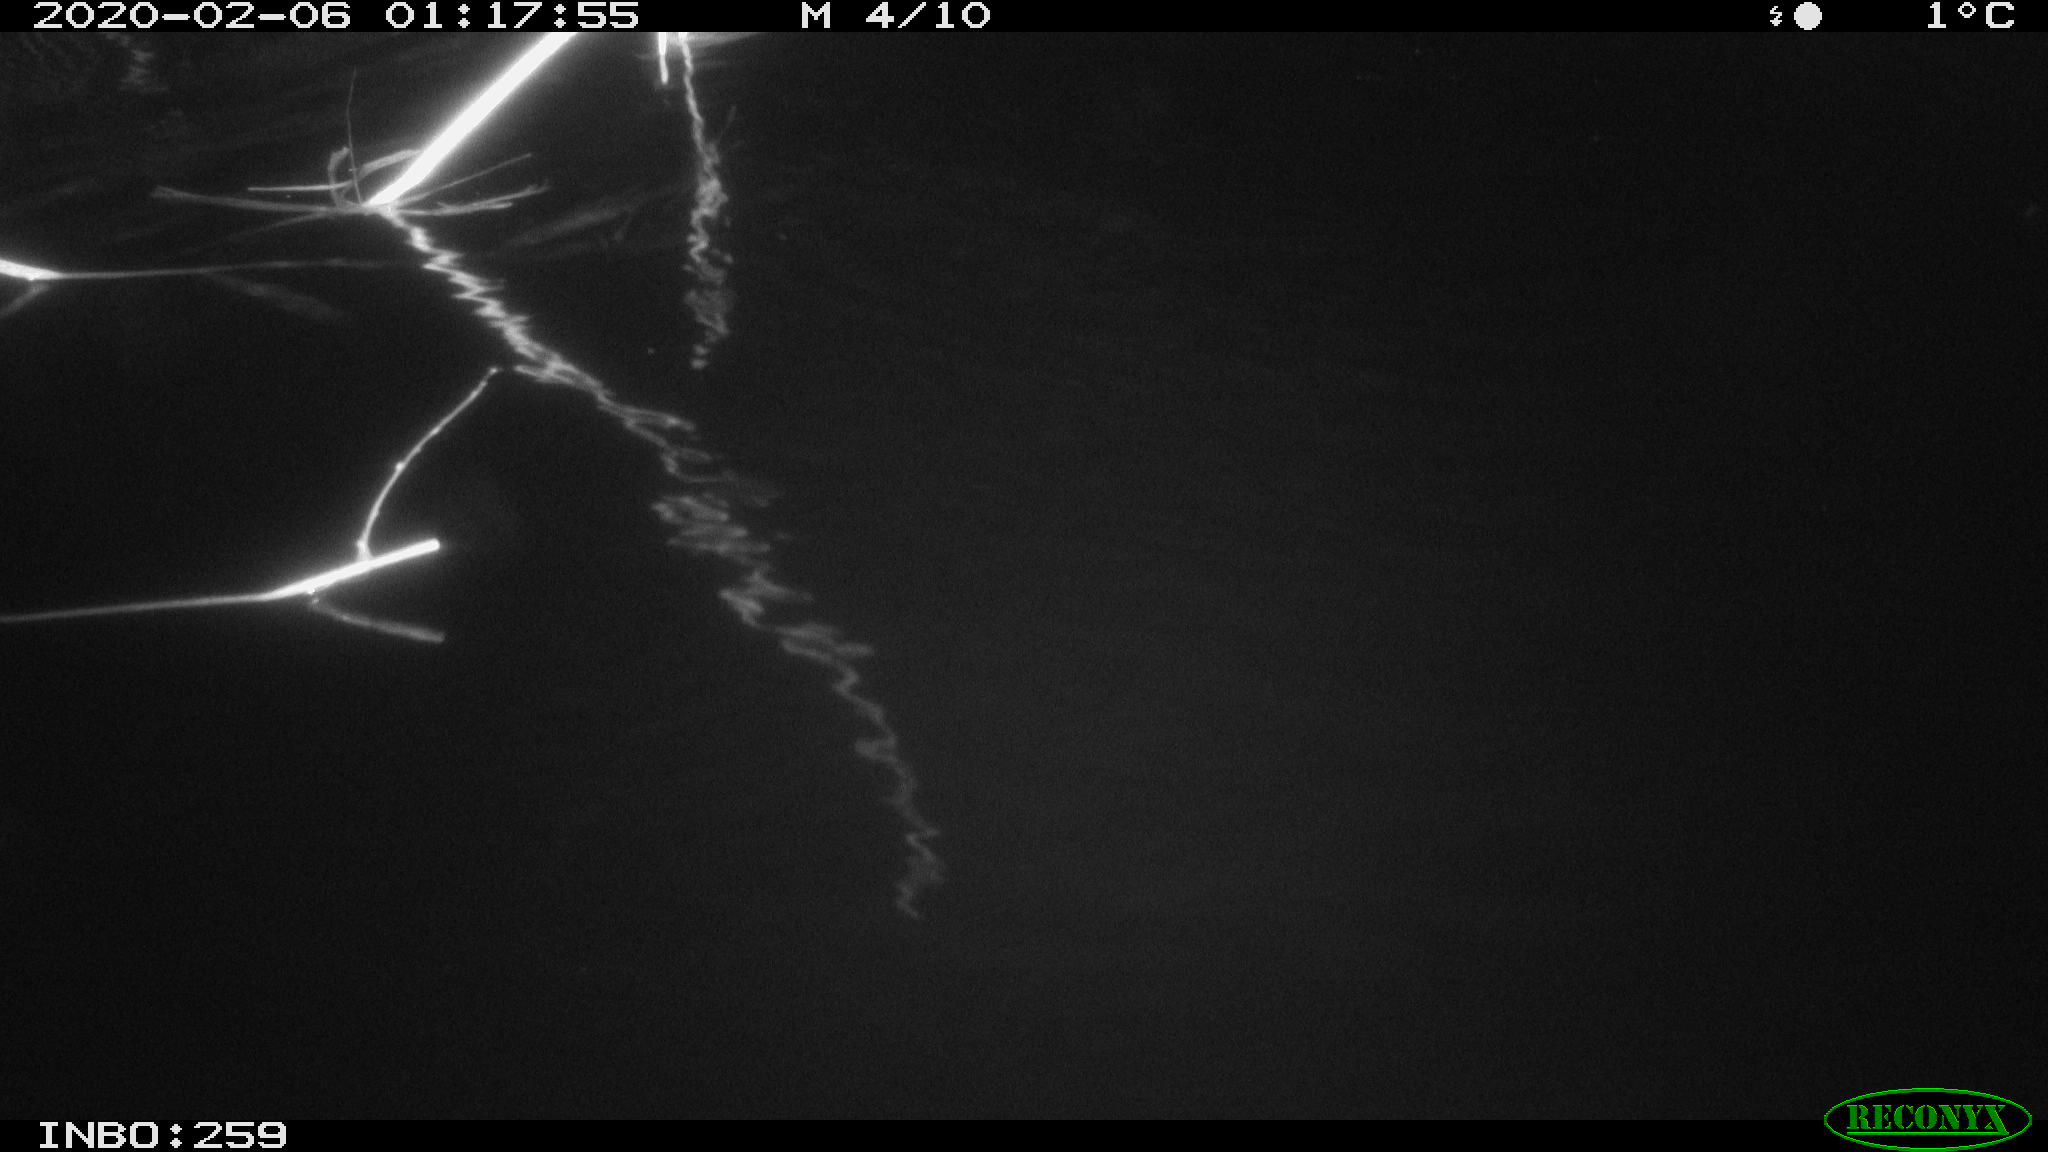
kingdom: Animalia
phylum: Chordata
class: Mammalia
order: Rodentia
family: Cricetidae
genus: Ondatra
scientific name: Ondatra zibethicus
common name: Muskrat
